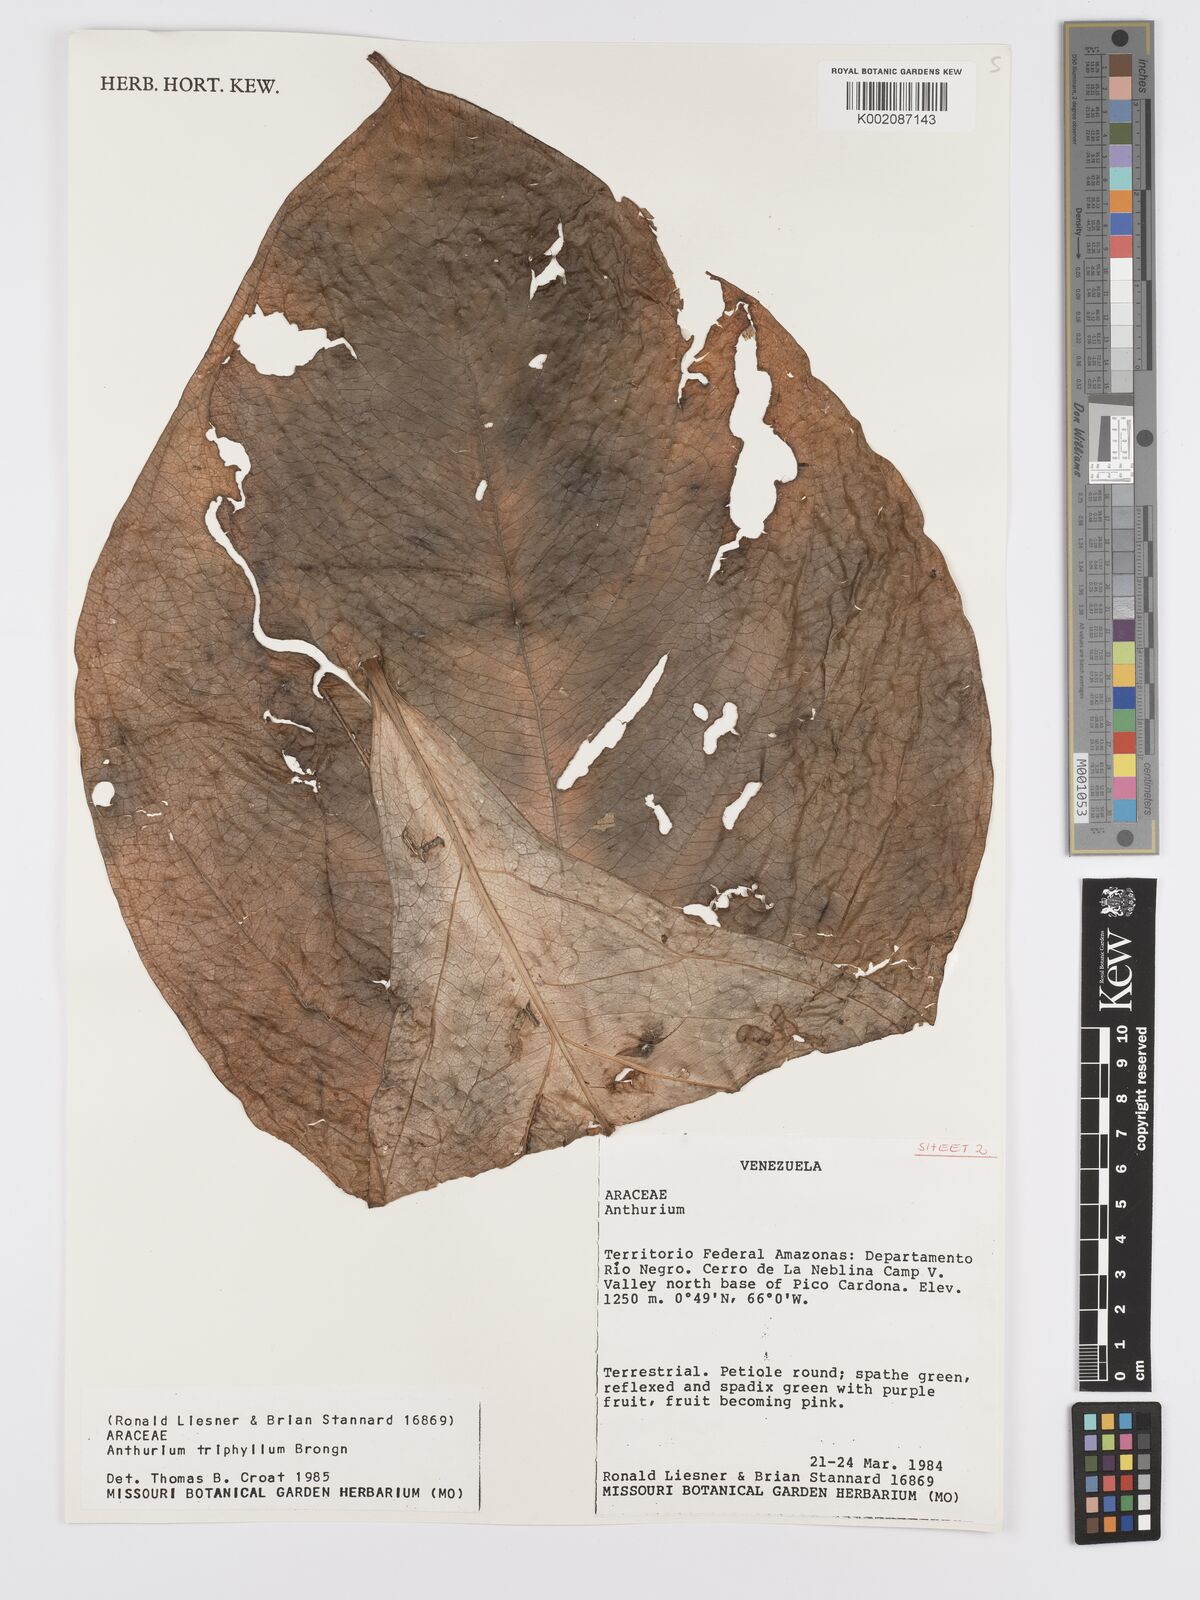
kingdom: Plantae
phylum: Tracheophyta
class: Liliopsida
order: Alismatales
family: Araceae
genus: Anthurium
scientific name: Anthurium triphyllum
